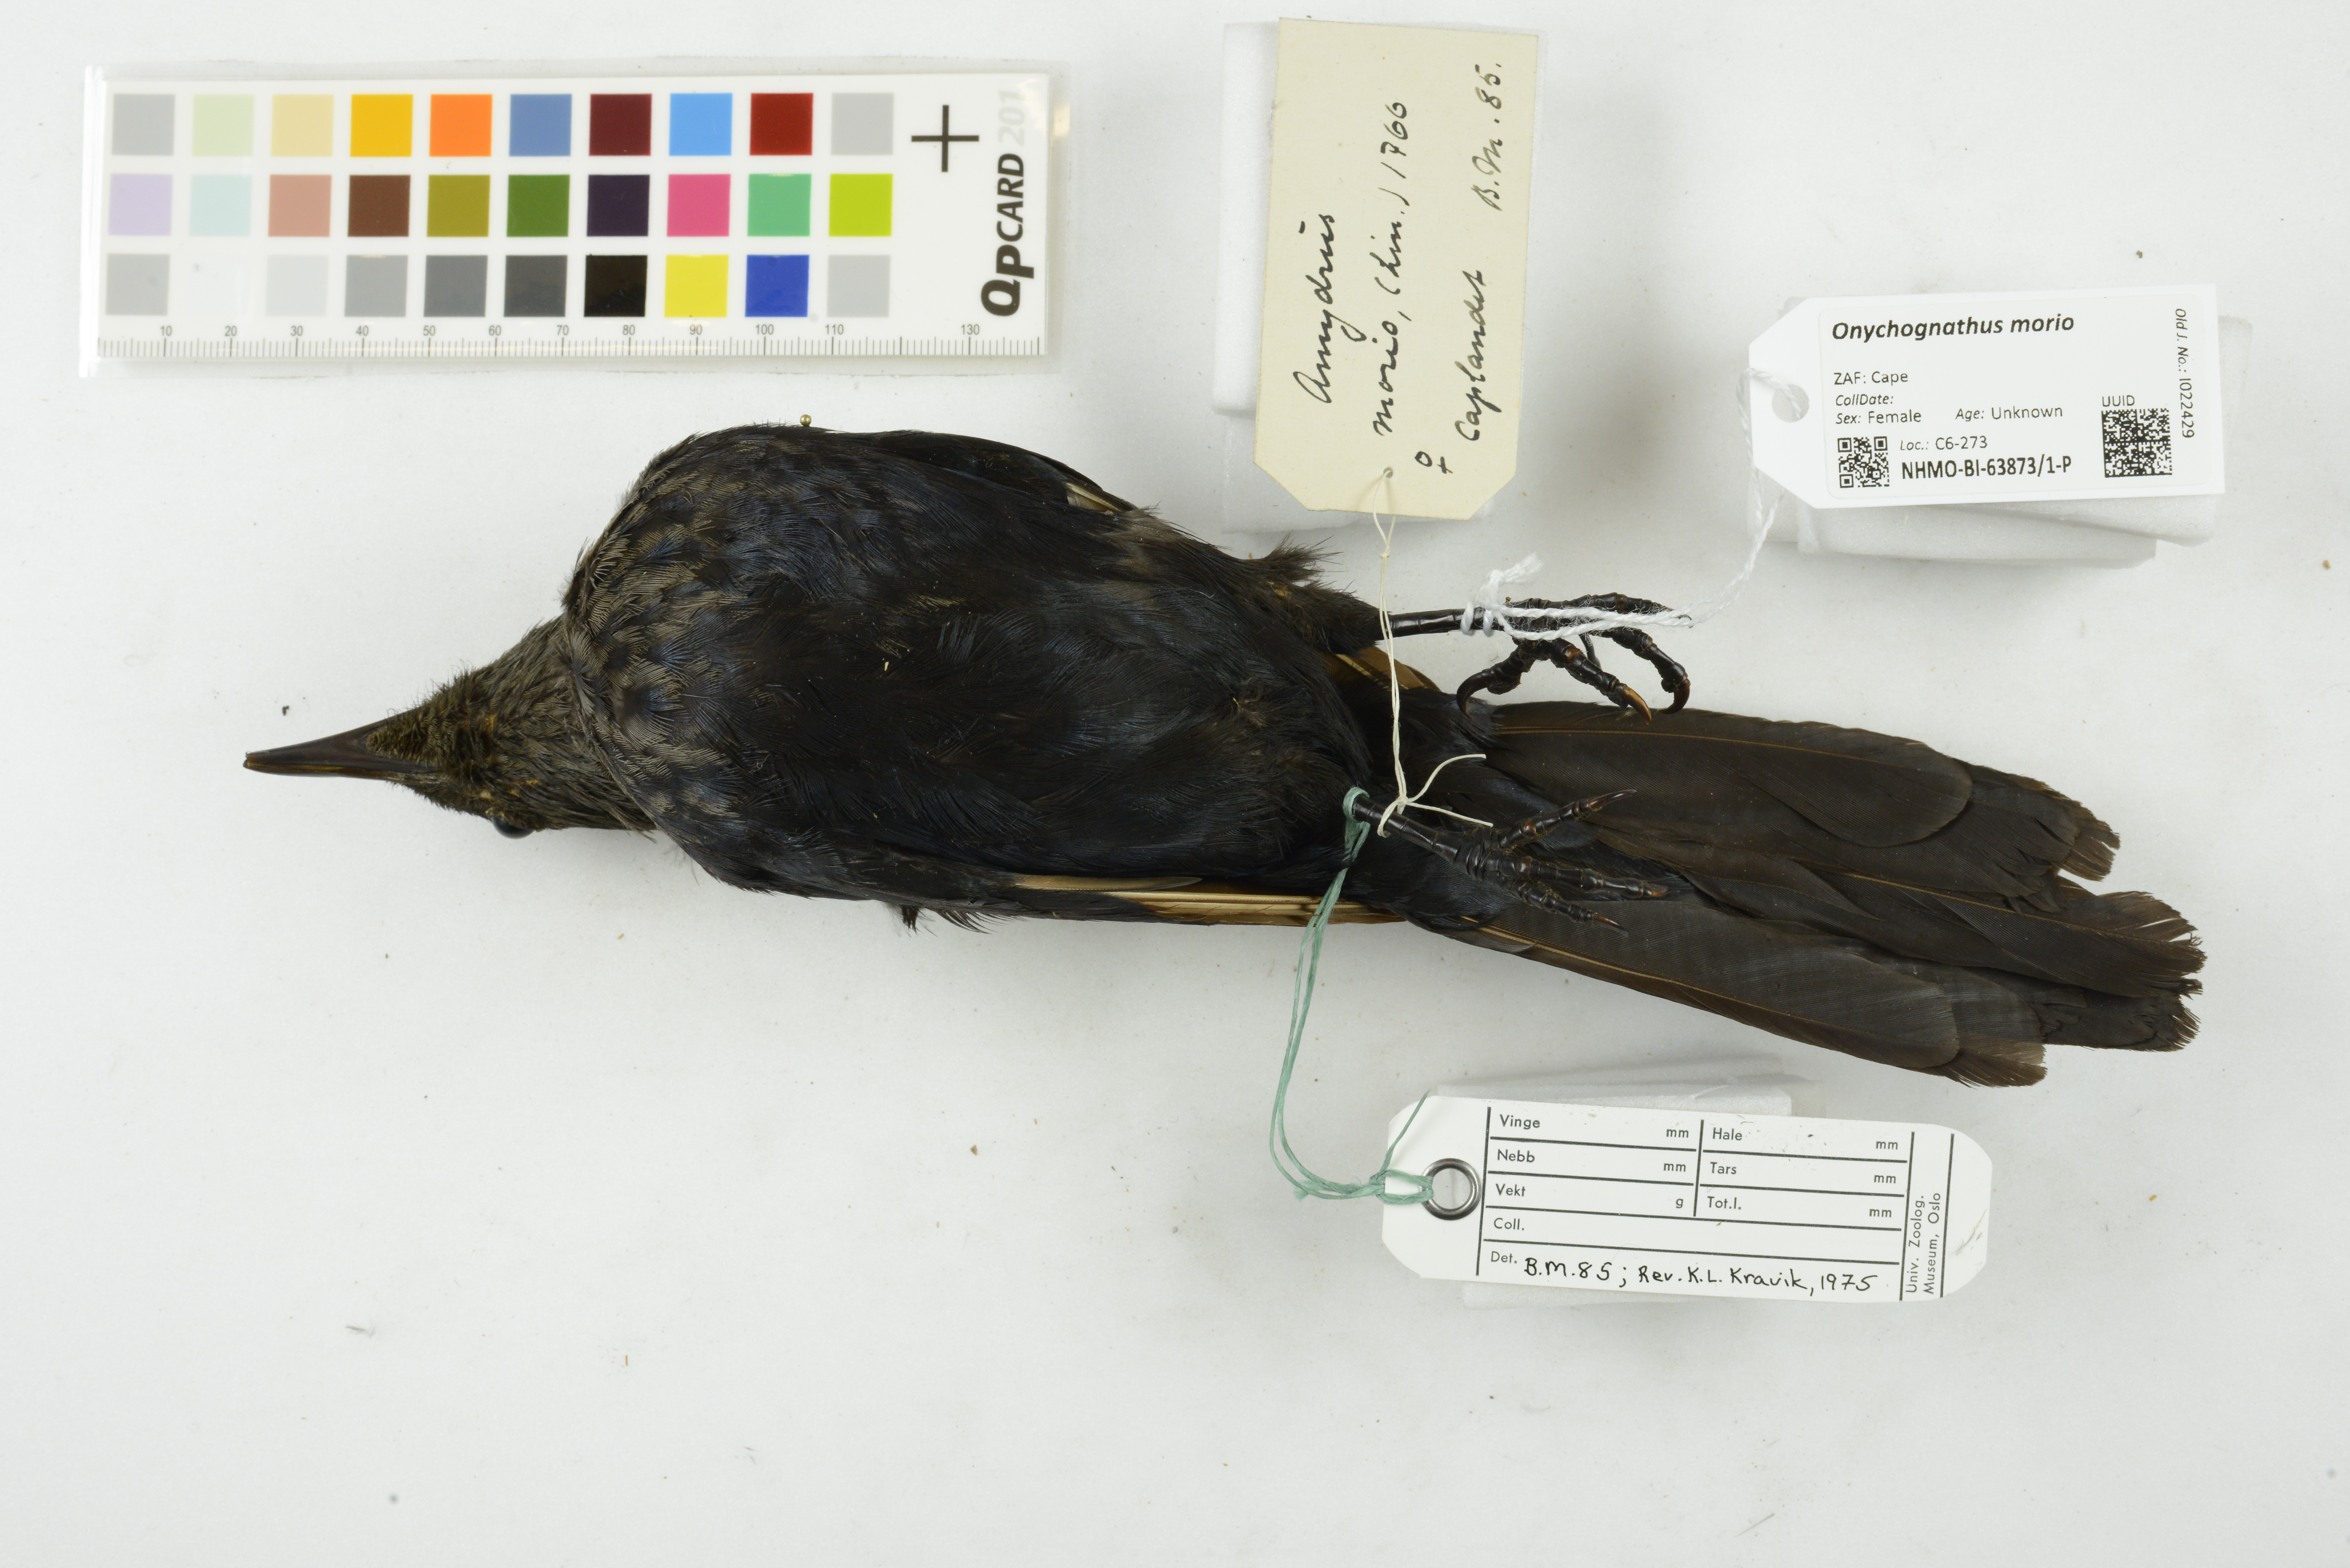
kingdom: Animalia
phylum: Chordata
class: Aves
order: Passeriformes
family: Sturnidae
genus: Onychognathus
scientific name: Onychognathus morio
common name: Red-winged starling
